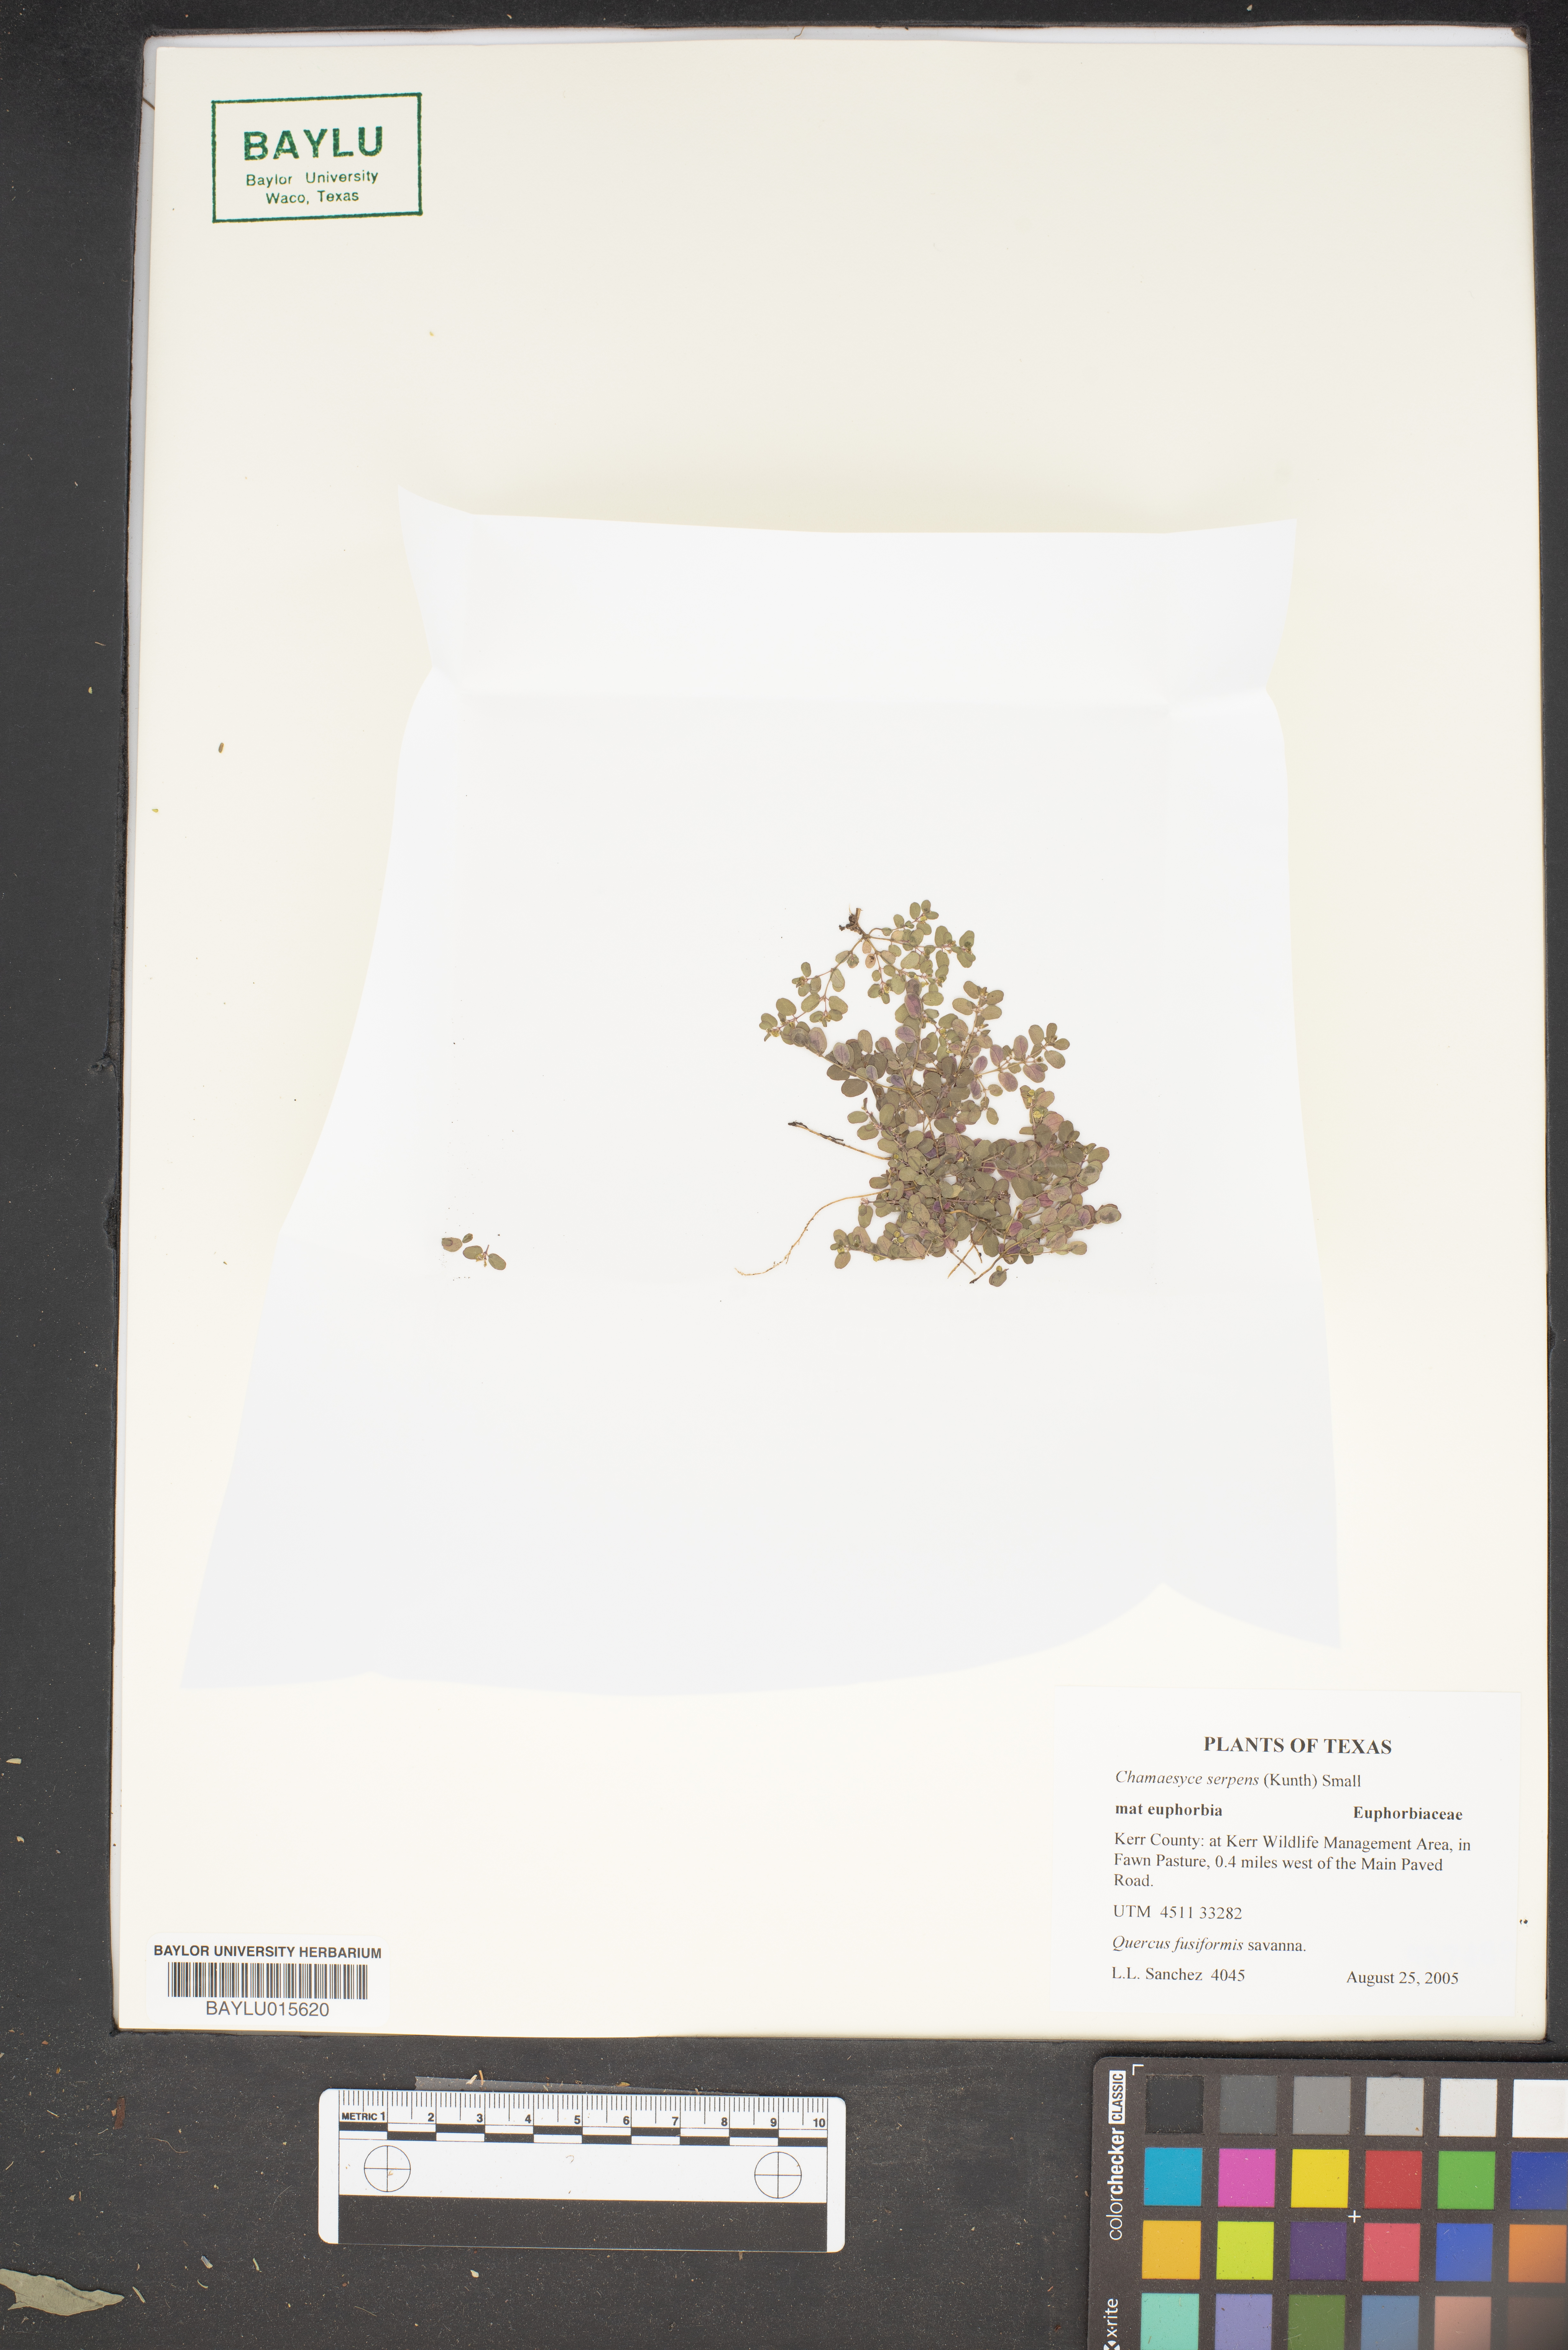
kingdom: Plantae
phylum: Tracheophyta
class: Magnoliopsida
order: Malpighiales
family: Euphorbiaceae
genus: Euphorbia
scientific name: Euphorbia serpens
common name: Matted sandmat
